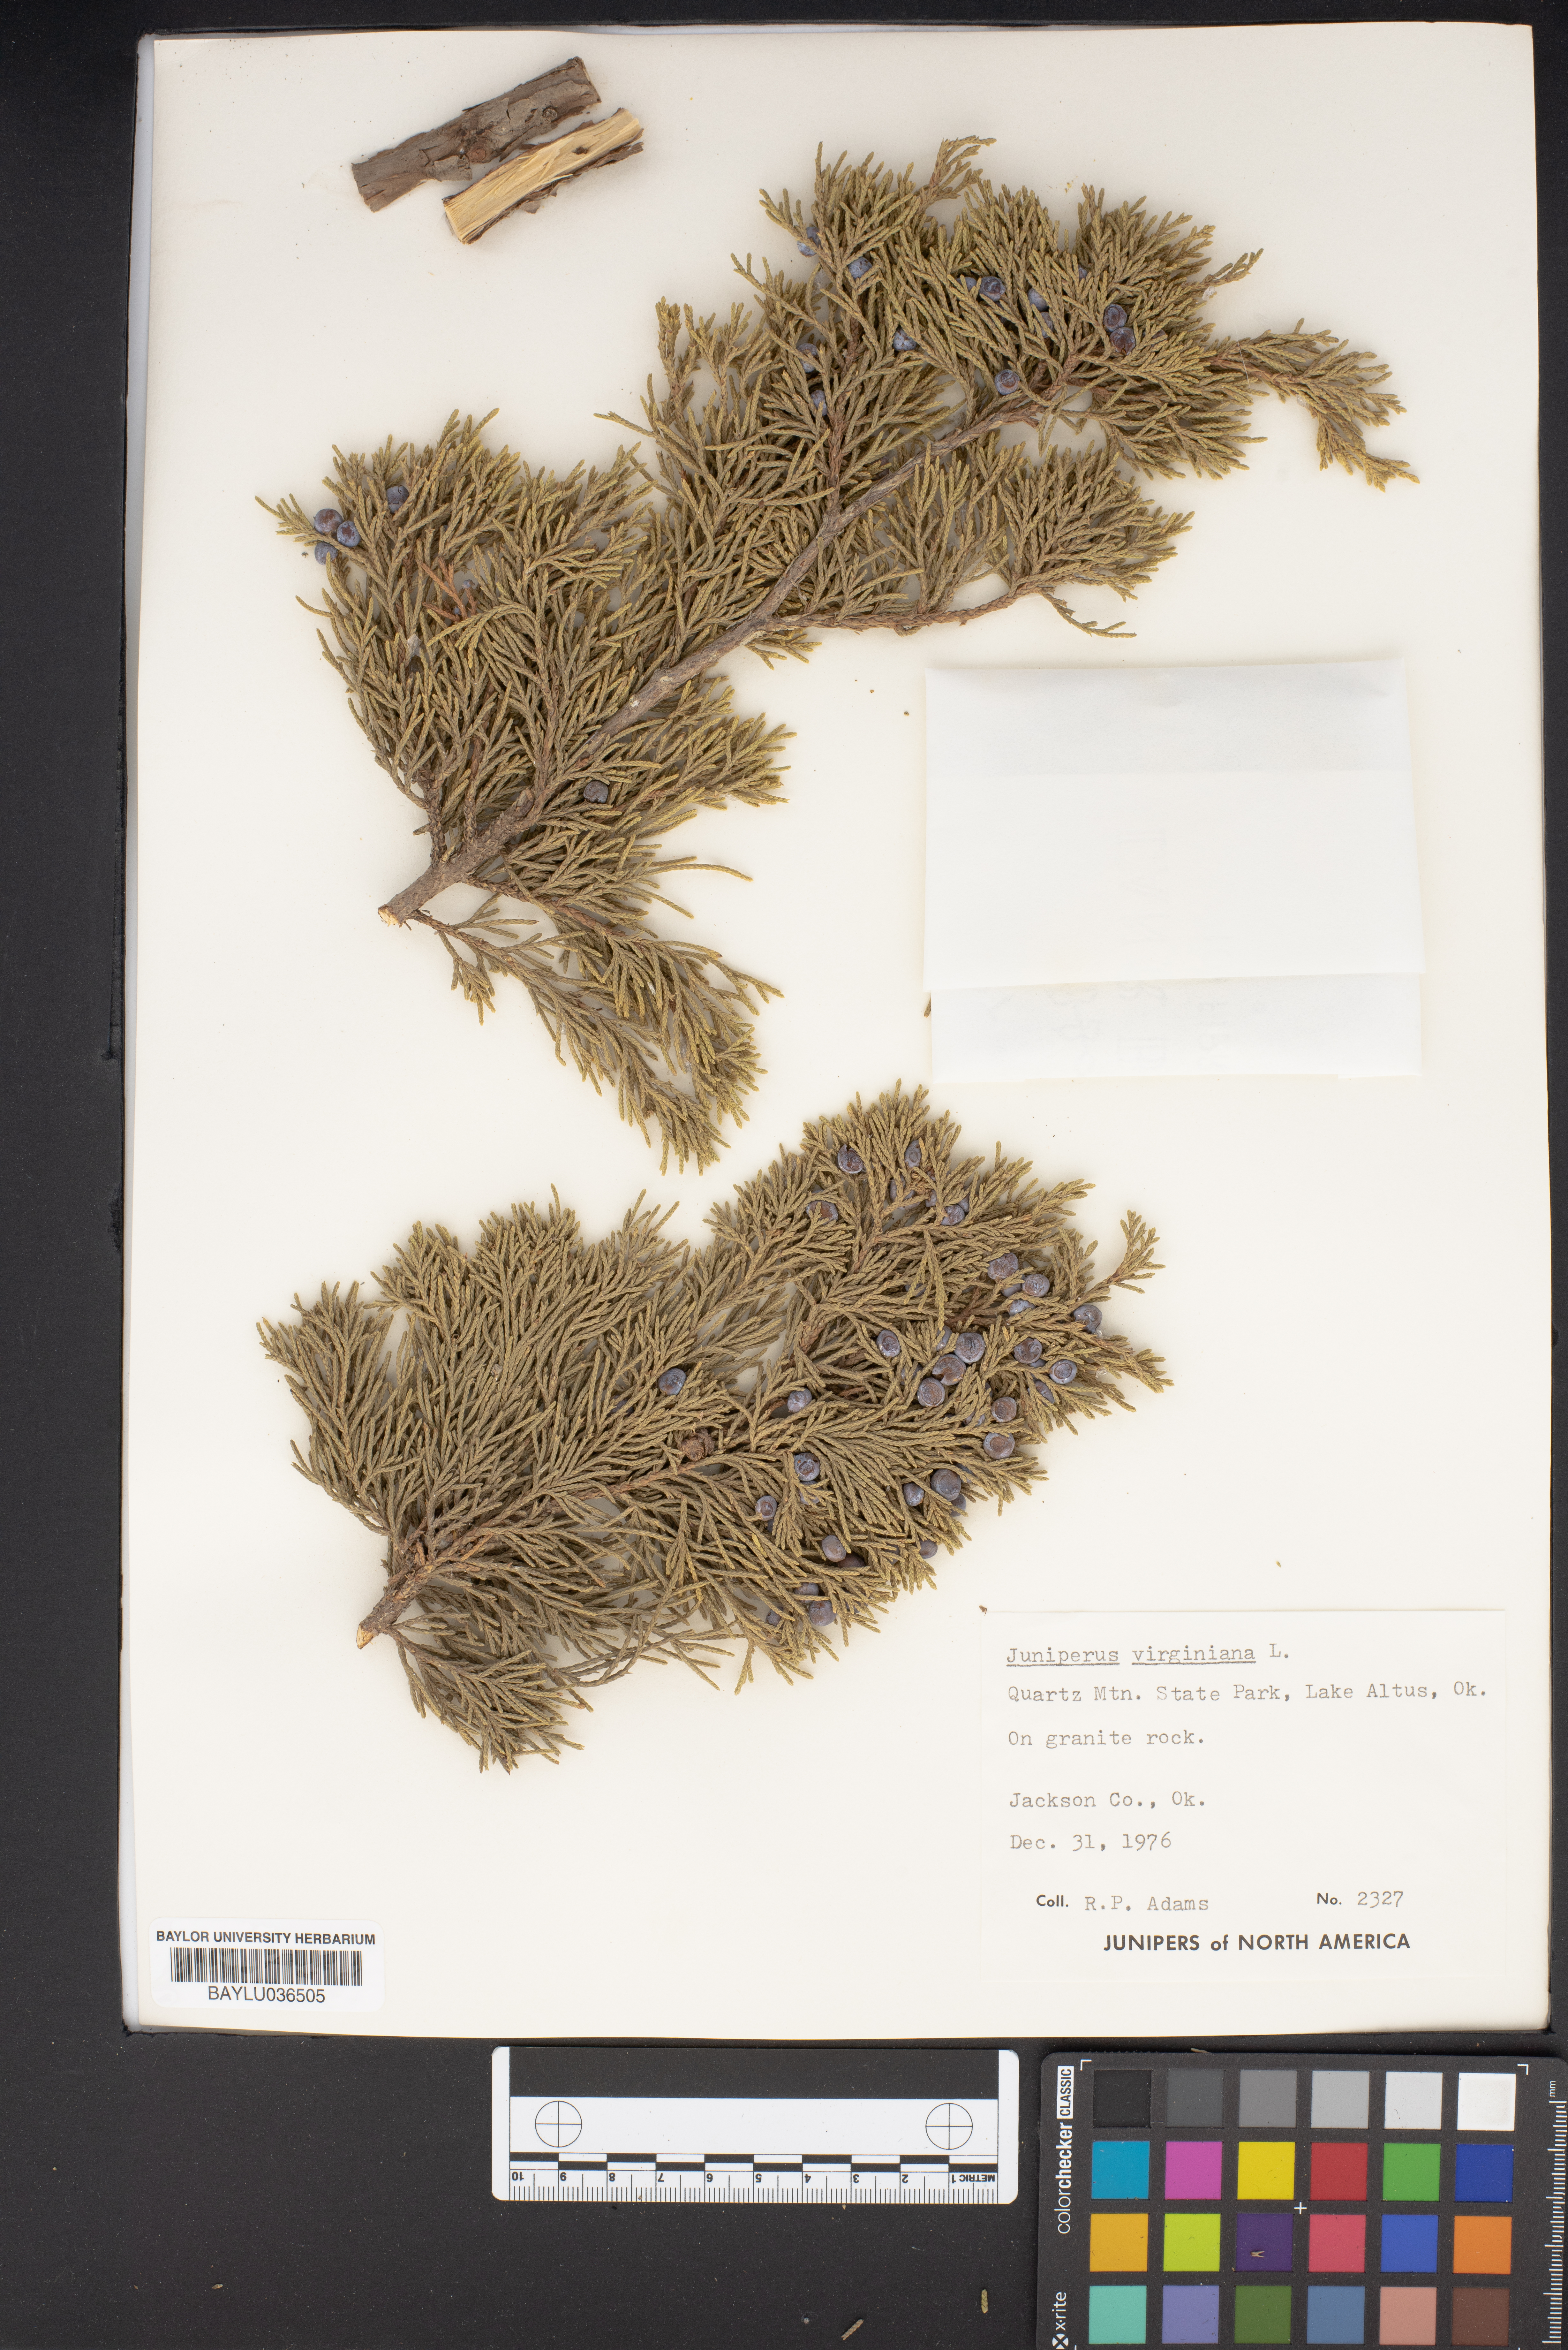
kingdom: Plantae
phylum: Tracheophyta
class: Pinopsida
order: Pinales
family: Cupressaceae
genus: Juniperus
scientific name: Juniperus virginiana
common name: Red juniper
